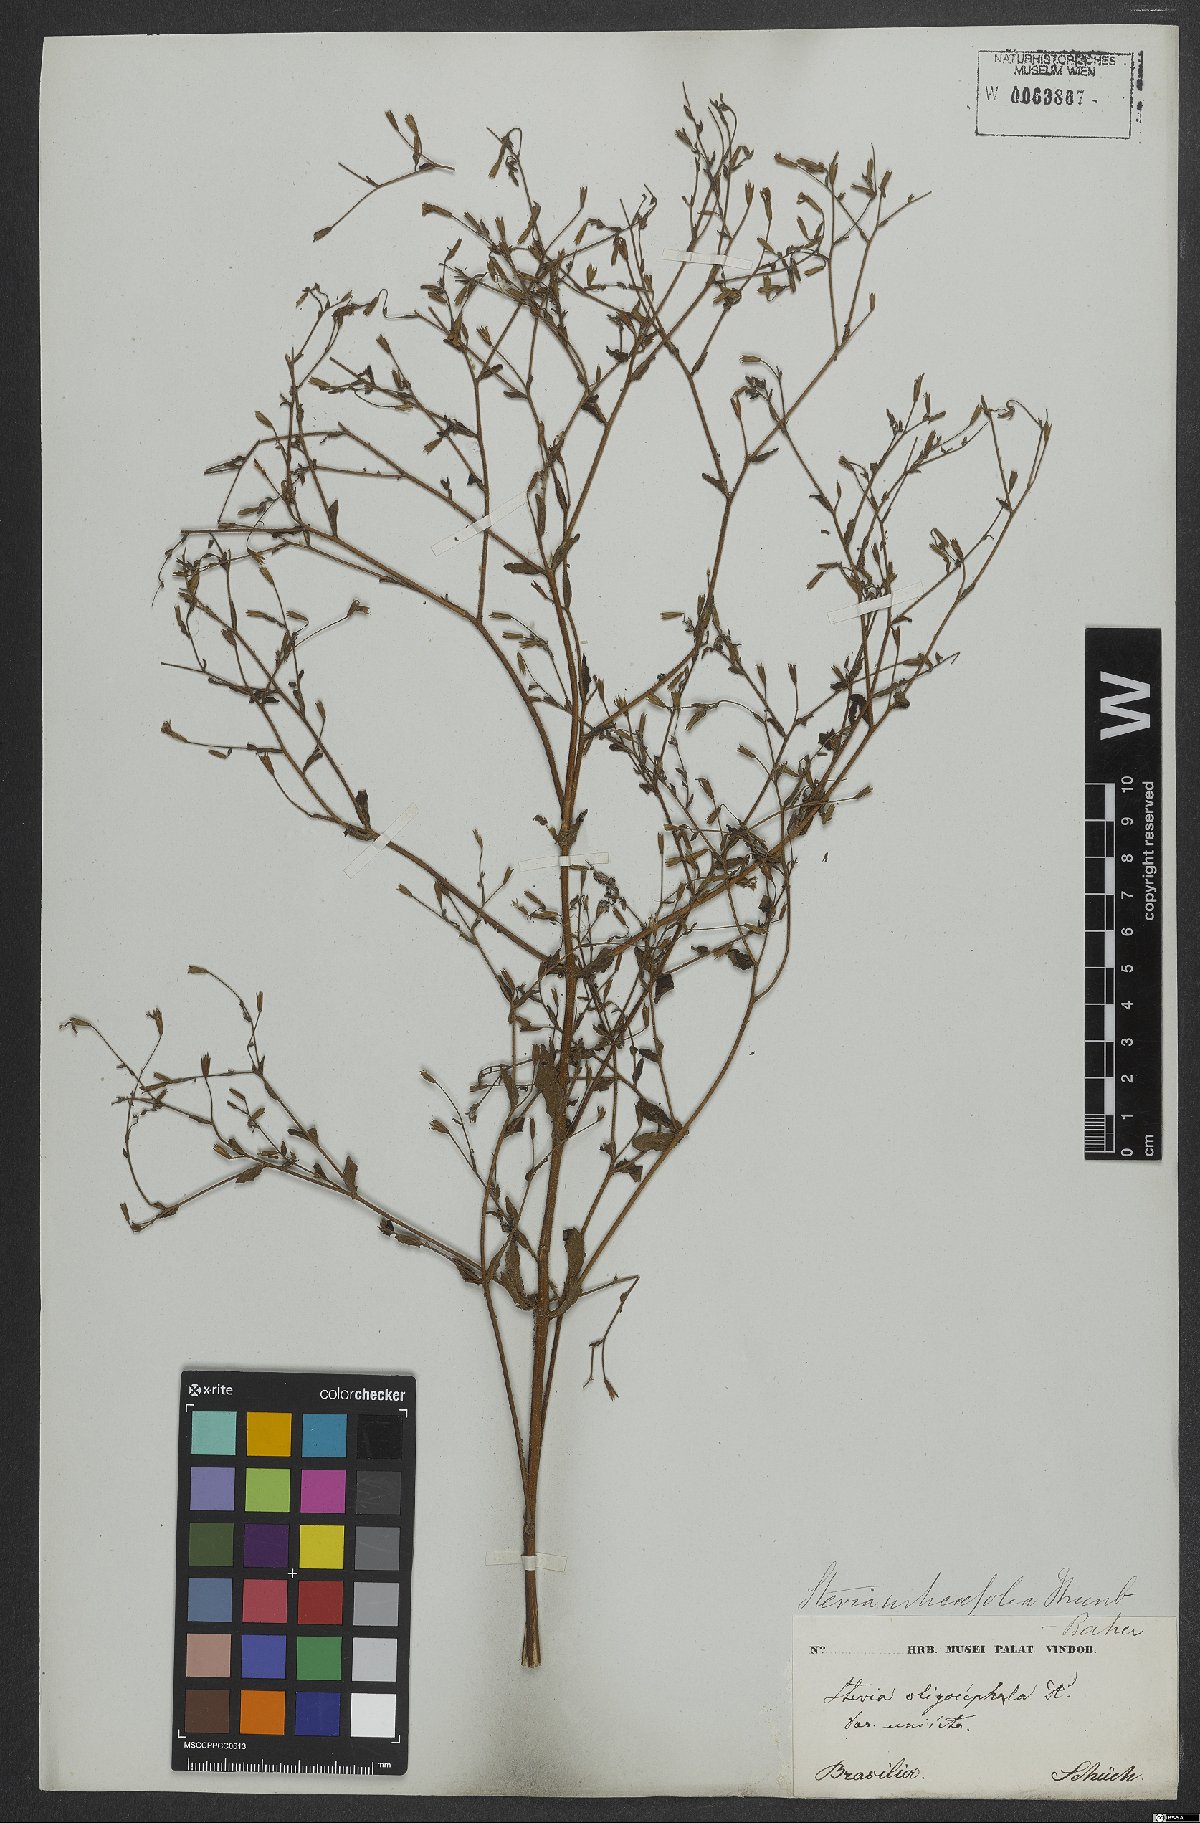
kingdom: Plantae
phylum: Tracheophyta
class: Magnoliopsida
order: Asterales
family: Asteraceae
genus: Stevia
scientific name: Stevia urticifolia
